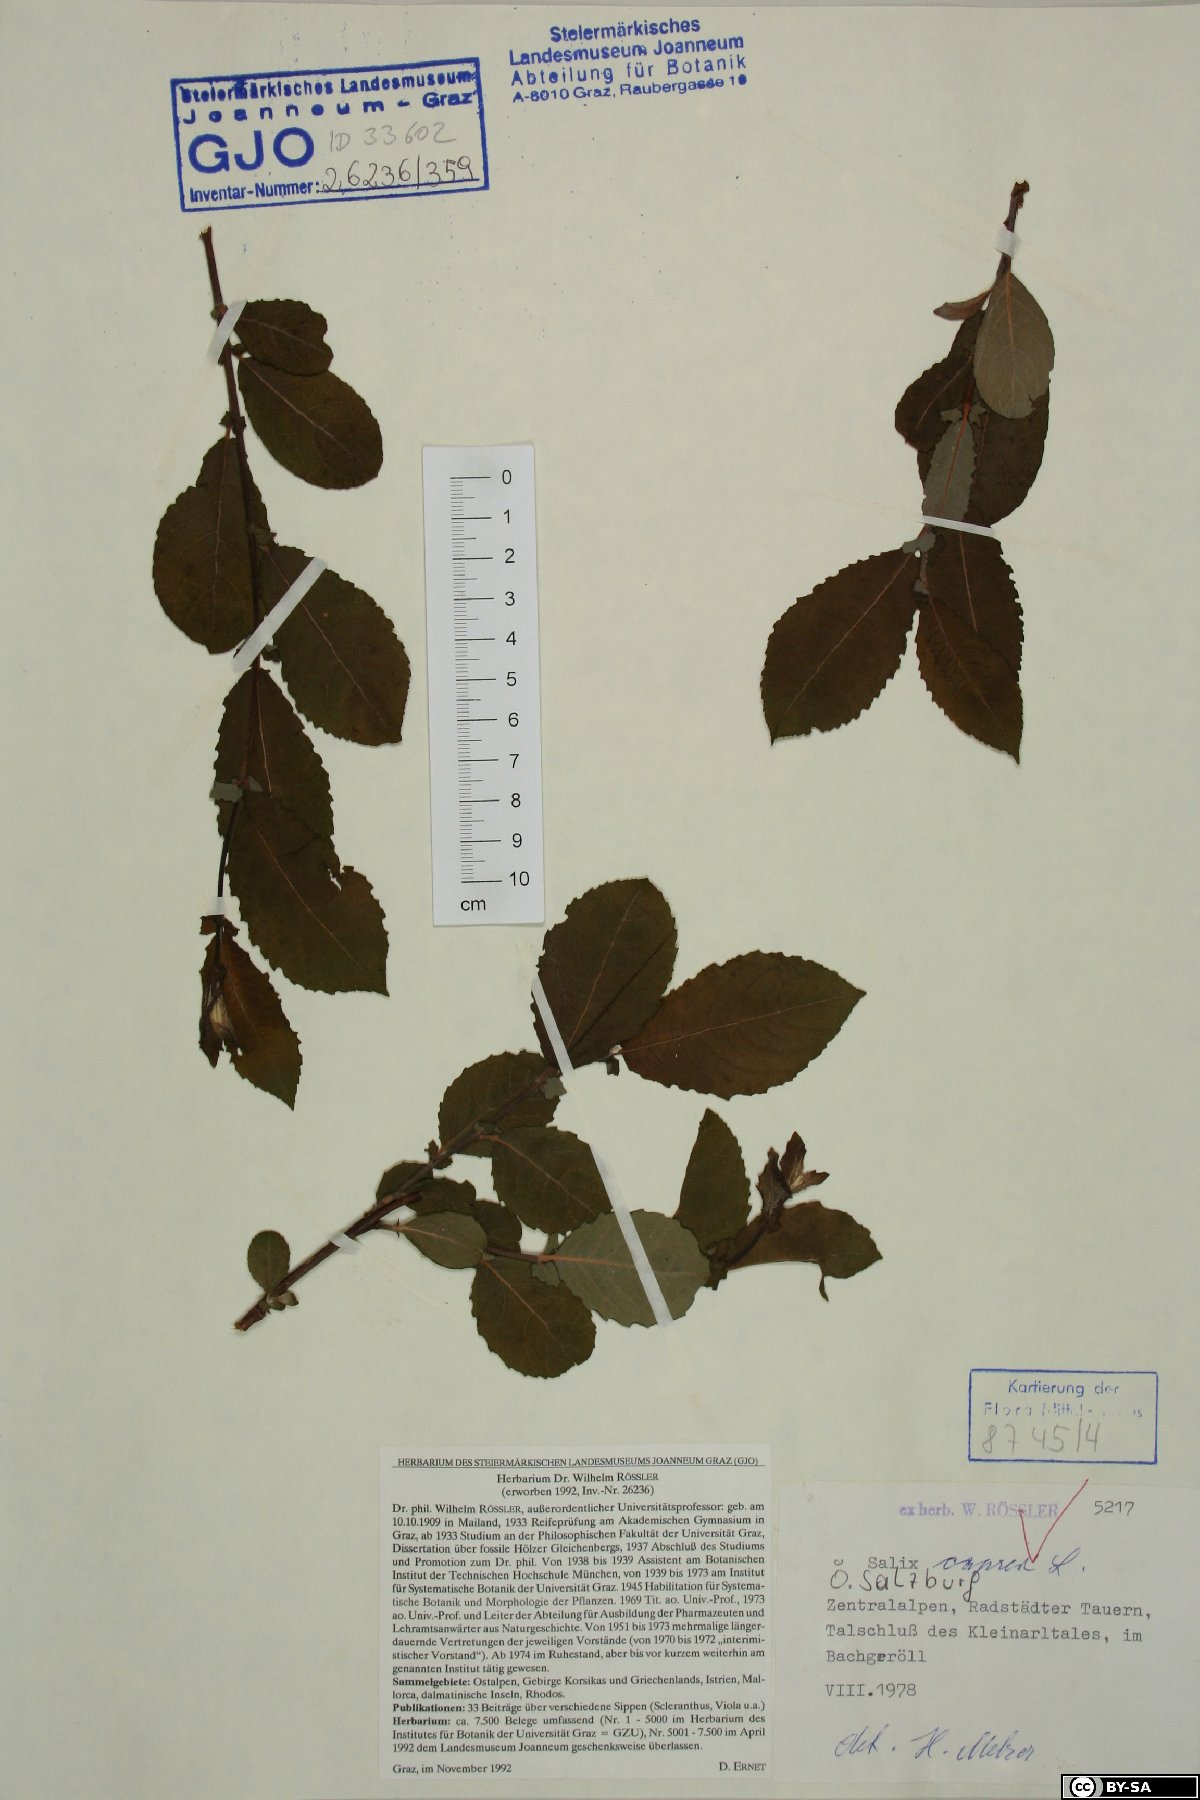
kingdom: Plantae
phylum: Tracheophyta
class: Magnoliopsida
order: Malpighiales
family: Salicaceae
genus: Salix
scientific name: Salix caprea
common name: Goat willow
